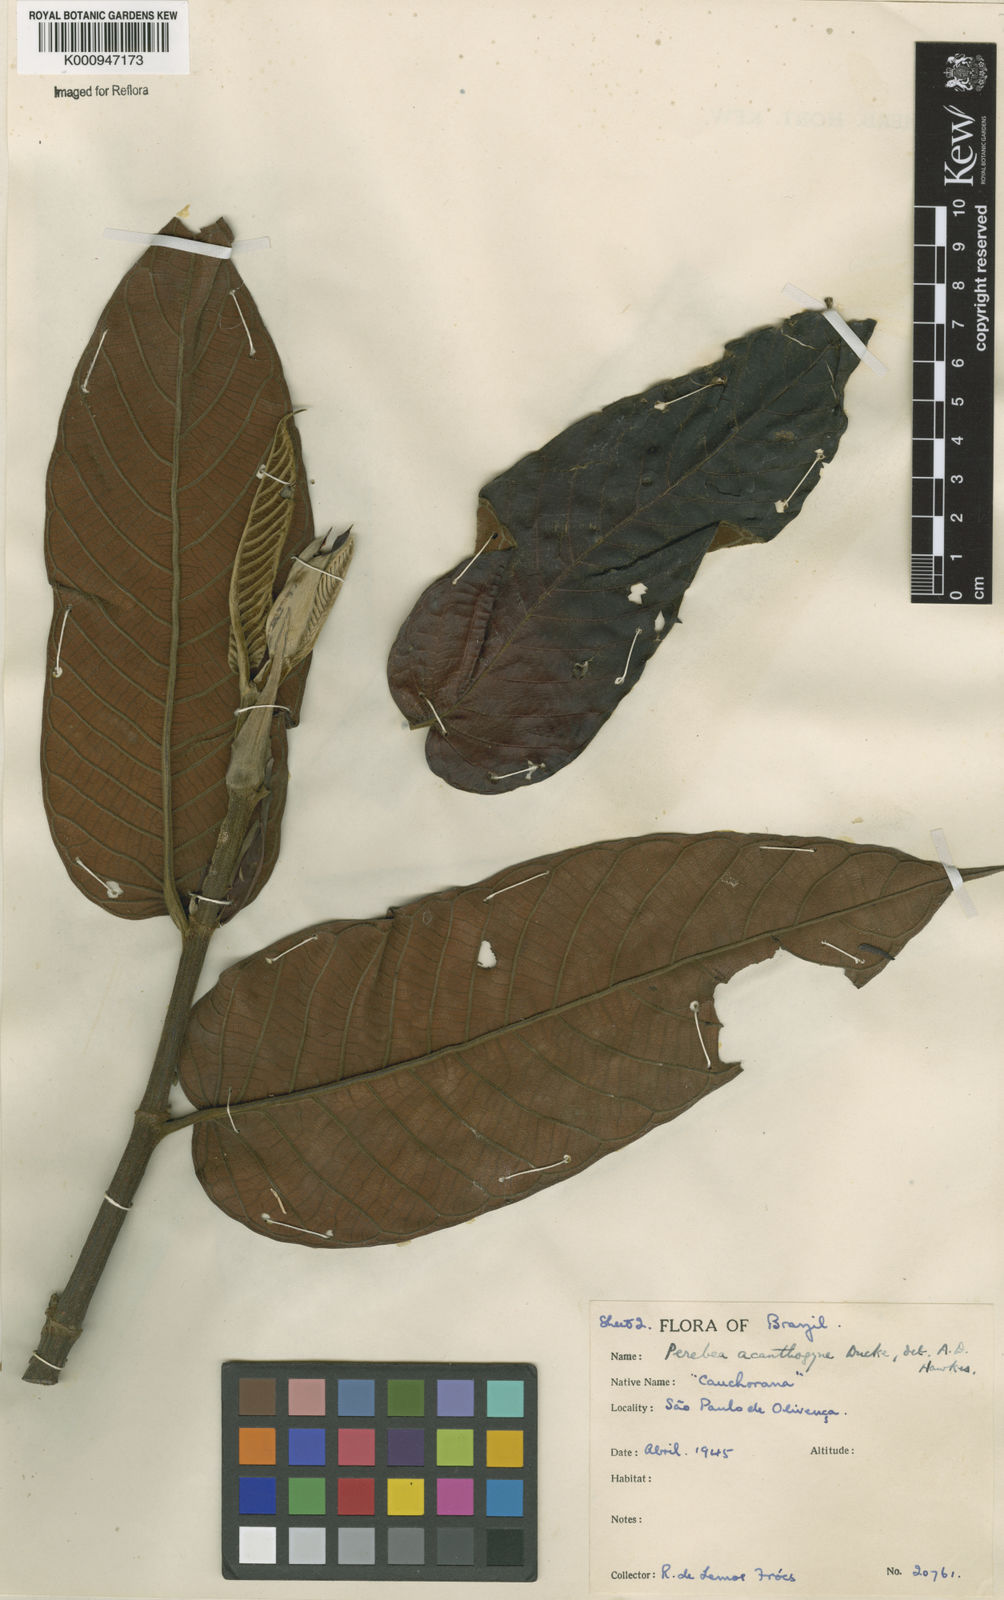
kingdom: Plantae
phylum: Tracheophyta
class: Magnoliopsida
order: Rosales
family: Moraceae
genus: Perebea
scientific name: Perebea guianensis
